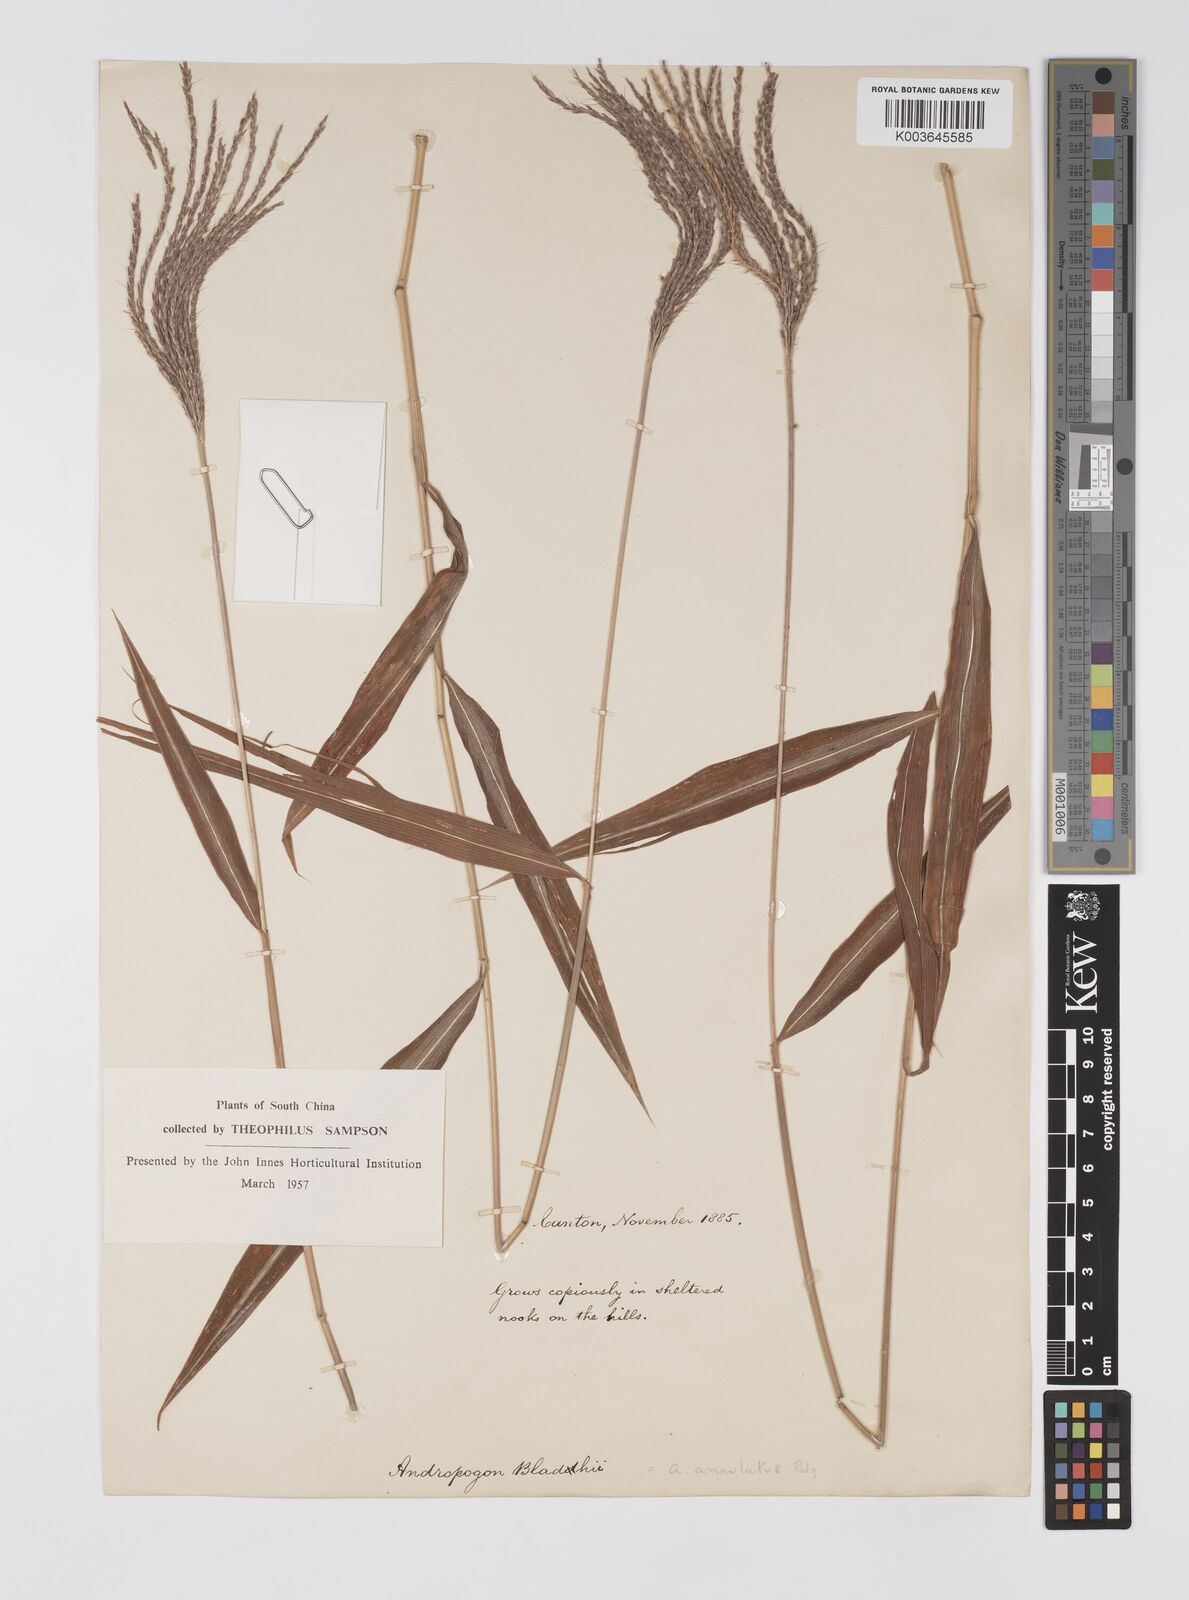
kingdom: Plantae
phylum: Tracheophyta
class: Liliopsida
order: Poales
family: Poaceae
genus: Microstegium
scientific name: Microstegium fasciculatum
